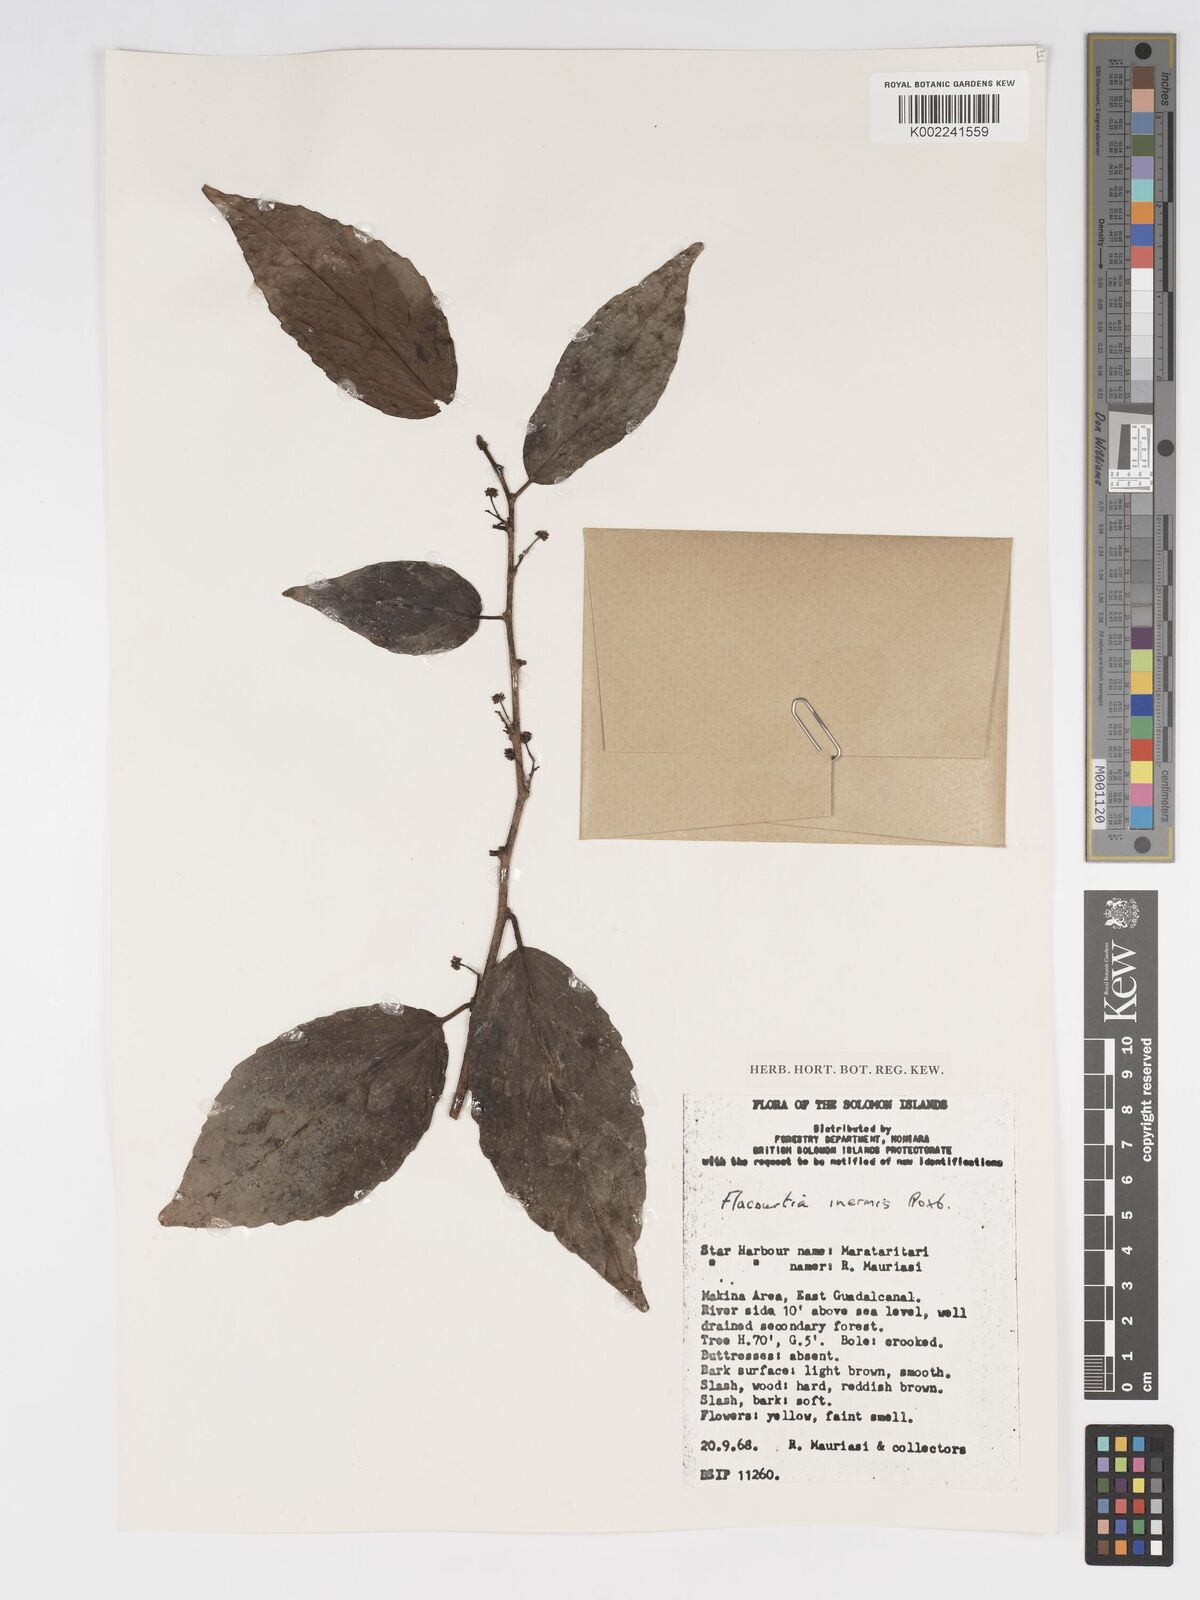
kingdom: Plantae
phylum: Tracheophyta
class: Magnoliopsida
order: Malpighiales
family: Salicaceae
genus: Flacourtia
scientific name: Flacourtia inermis
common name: Plum-of-martinique
